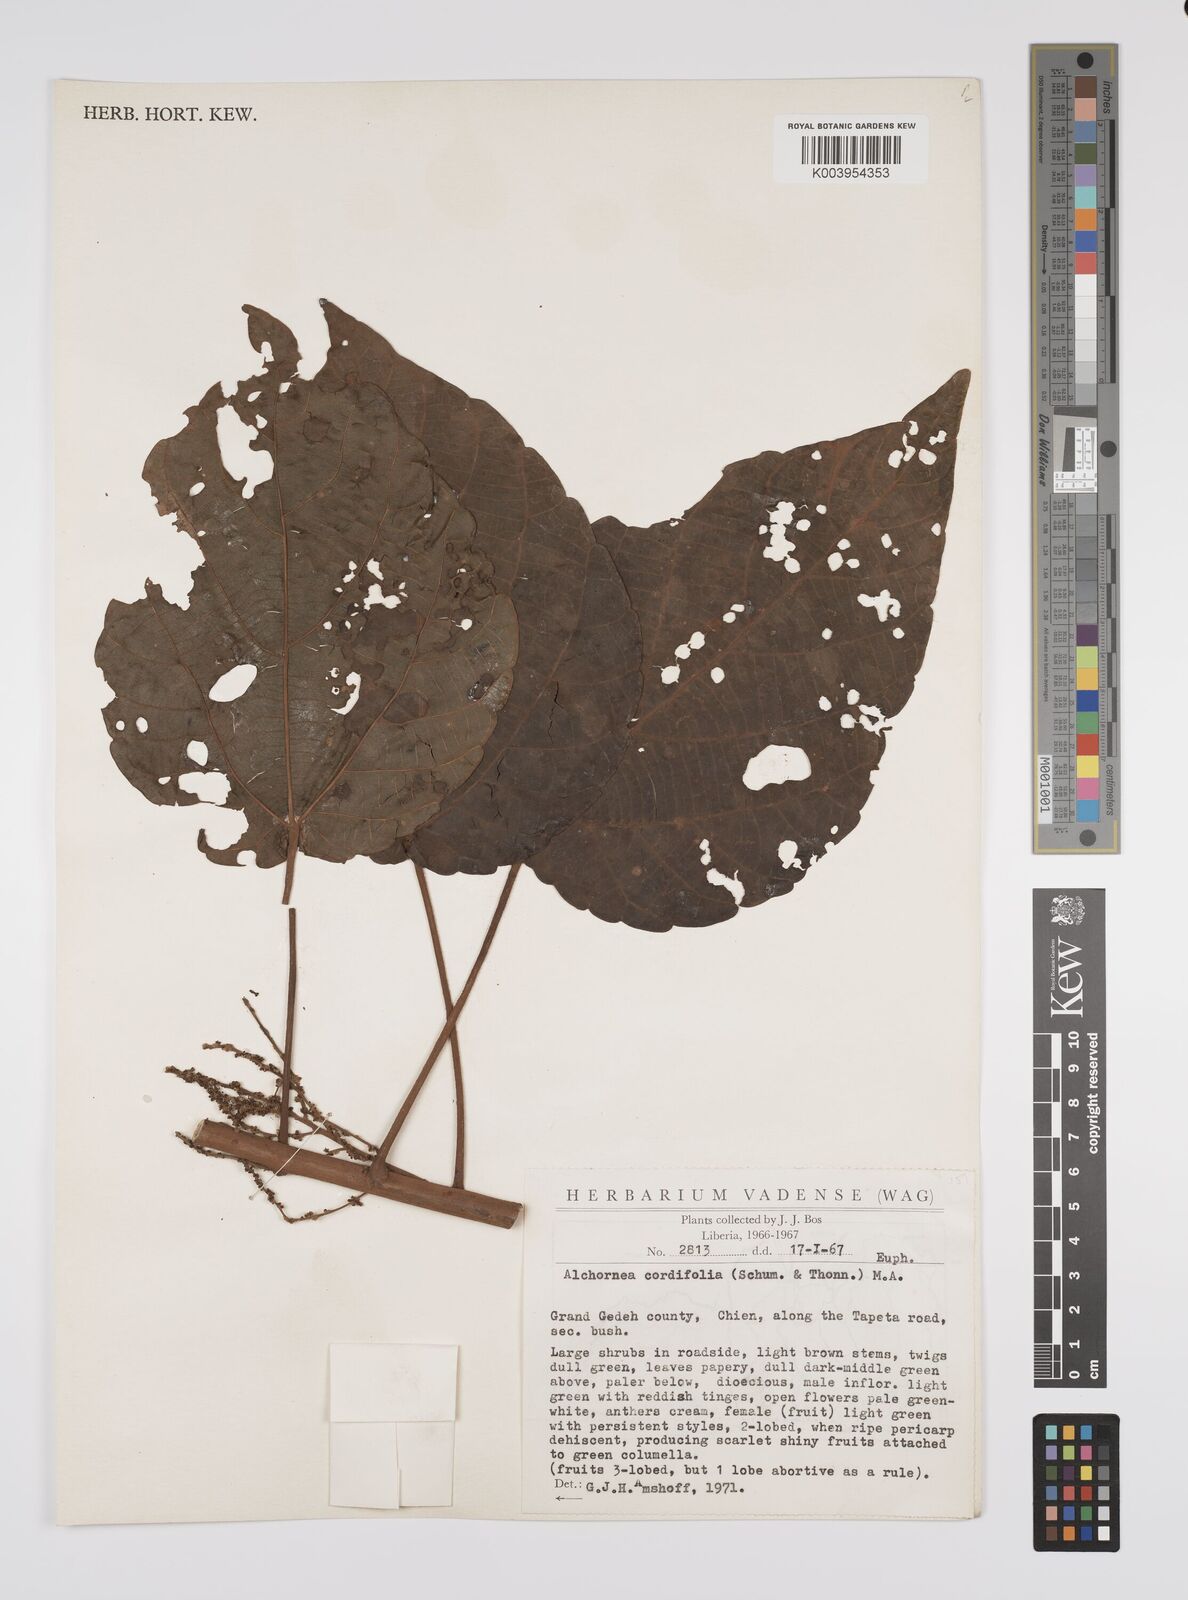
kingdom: Plantae
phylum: Tracheophyta
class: Magnoliopsida
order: Malpighiales
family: Euphorbiaceae
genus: Alchornea
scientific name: Alchornea cordifolia
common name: Christmasbush
